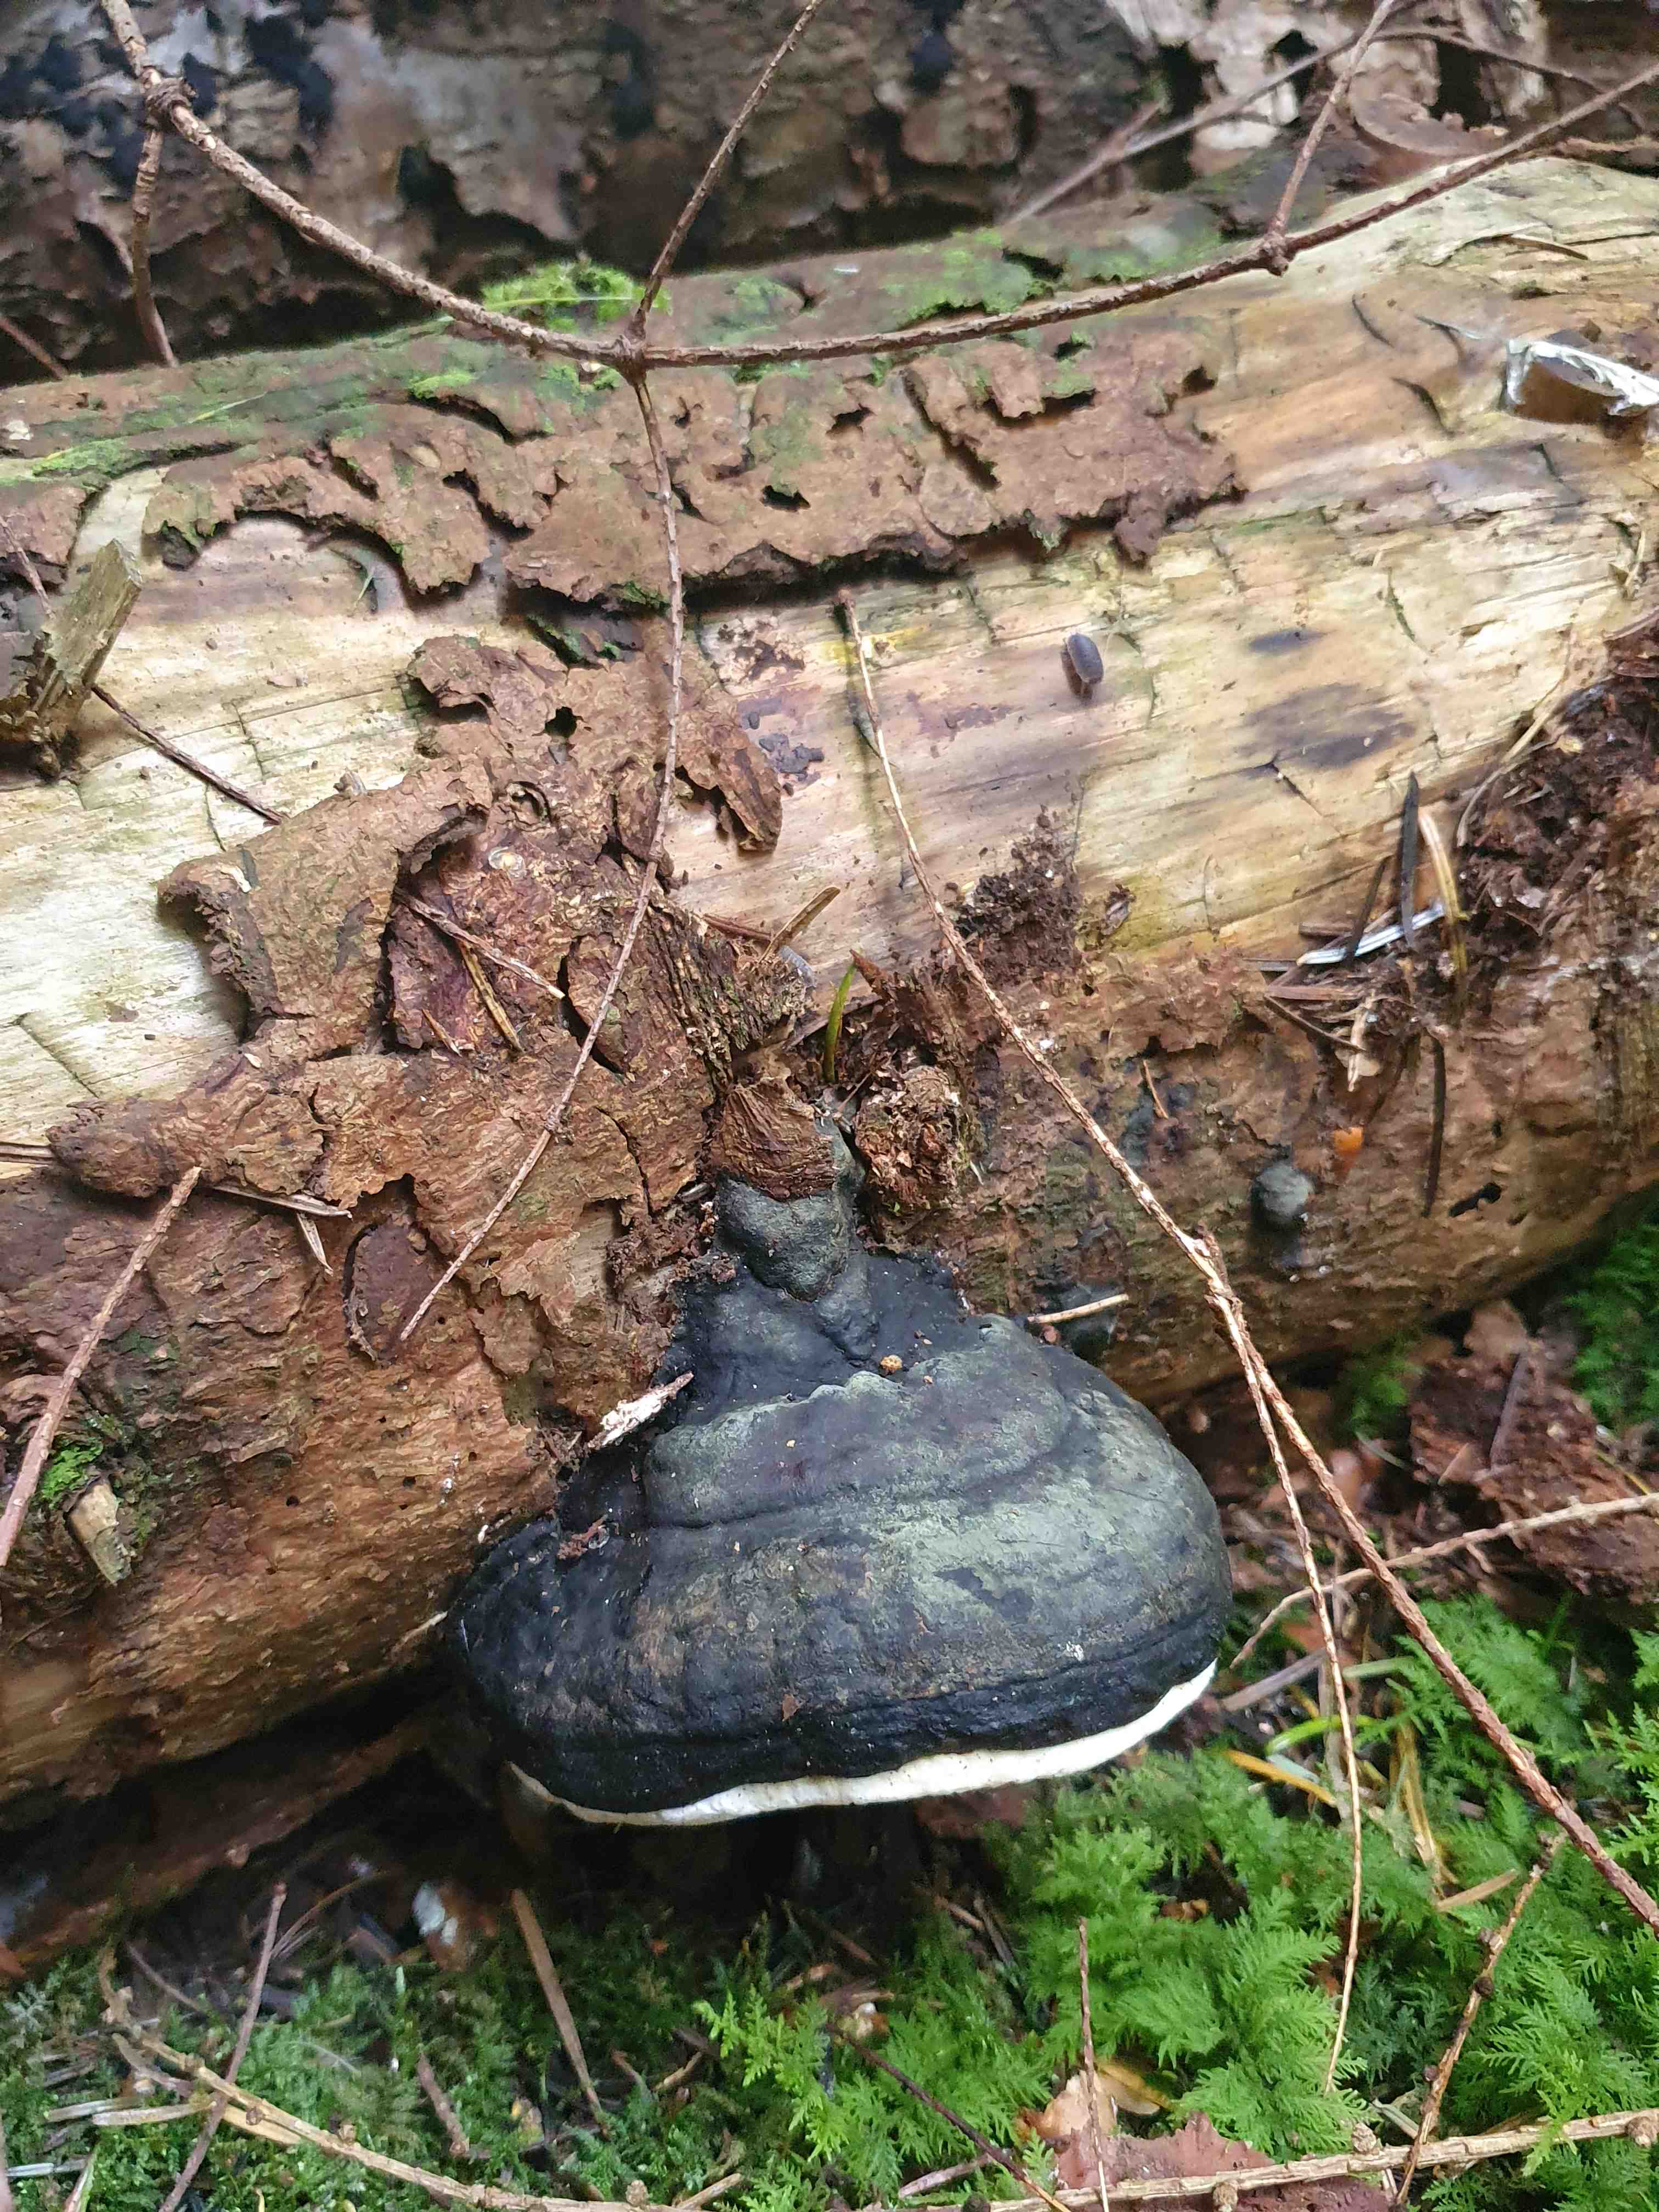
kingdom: Fungi
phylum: Basidiomycota
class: Agaricomycetes
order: Polyporales
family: Fomitopsidaceae
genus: Fomitopsis
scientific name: Fomitopsis pinicola
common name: randbæltet hovporesvamp
